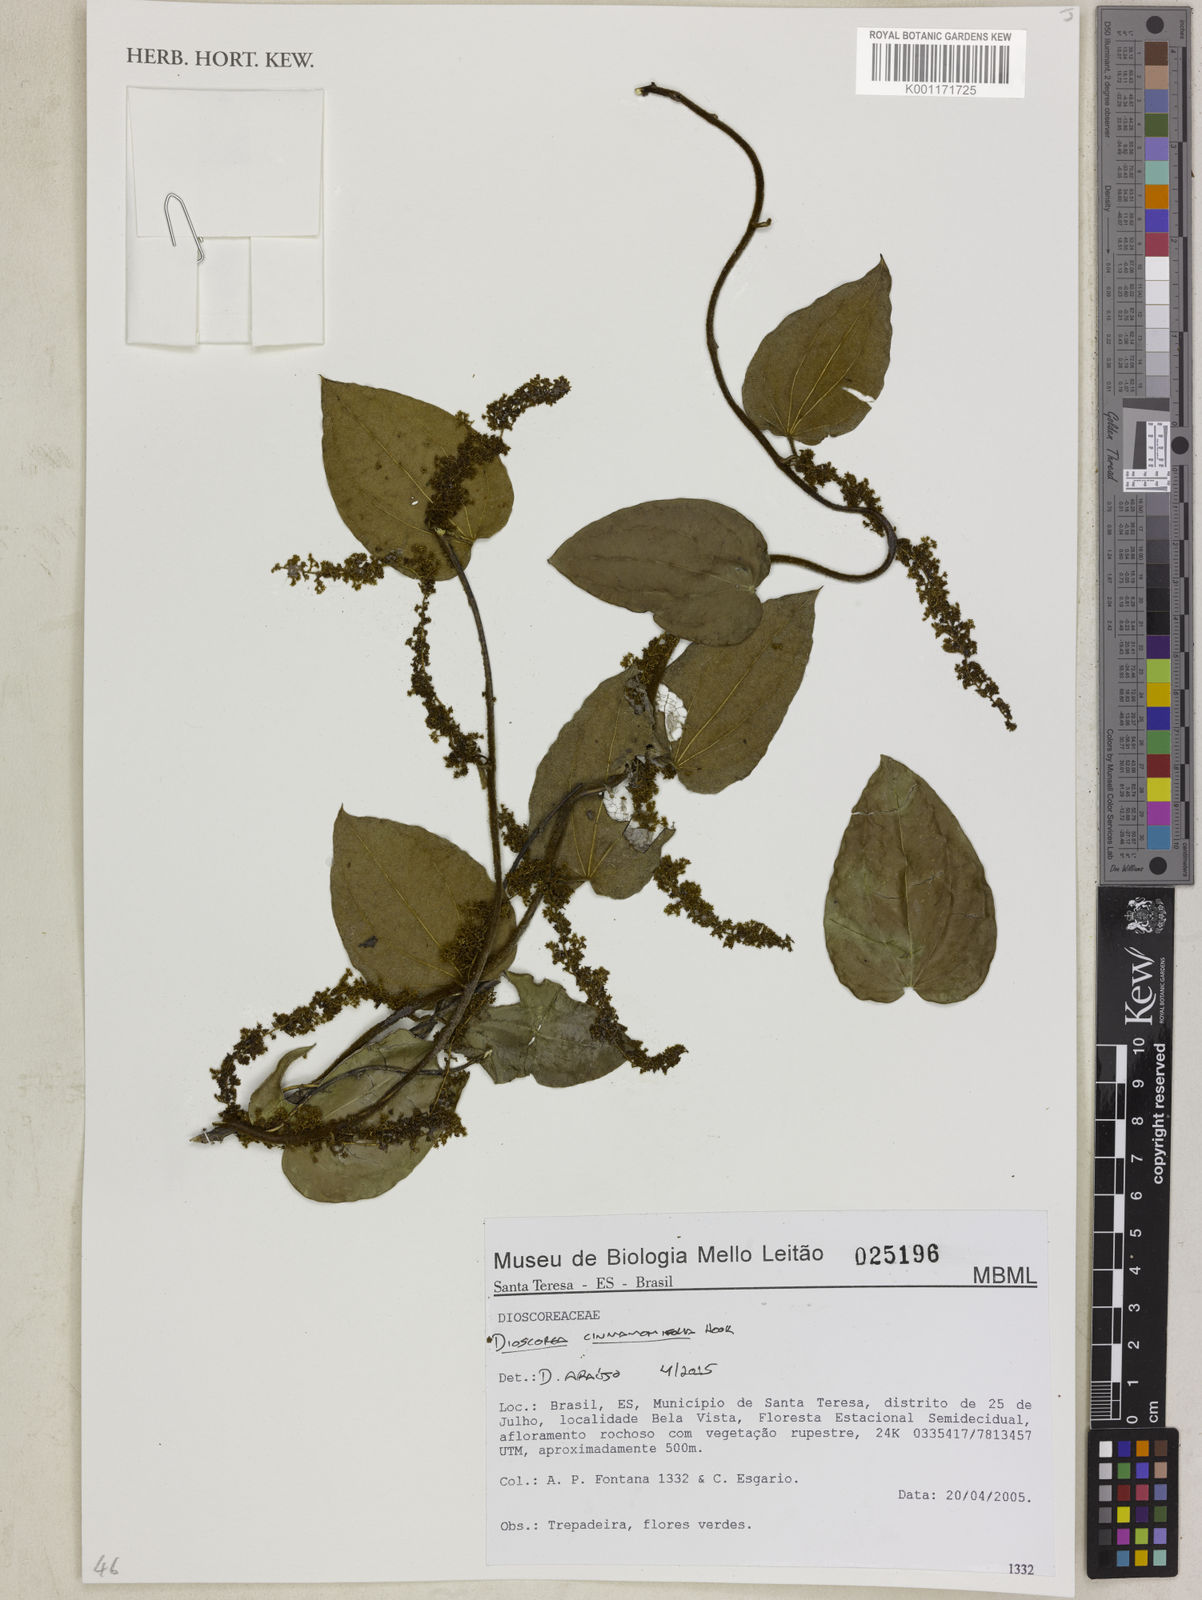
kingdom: Plantae
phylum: Tracheophyta
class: Liliopsida
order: Dioscoreales
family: Dioscoreaceae
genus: Dioscorea
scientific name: Dioscorea cinnamomifolia
